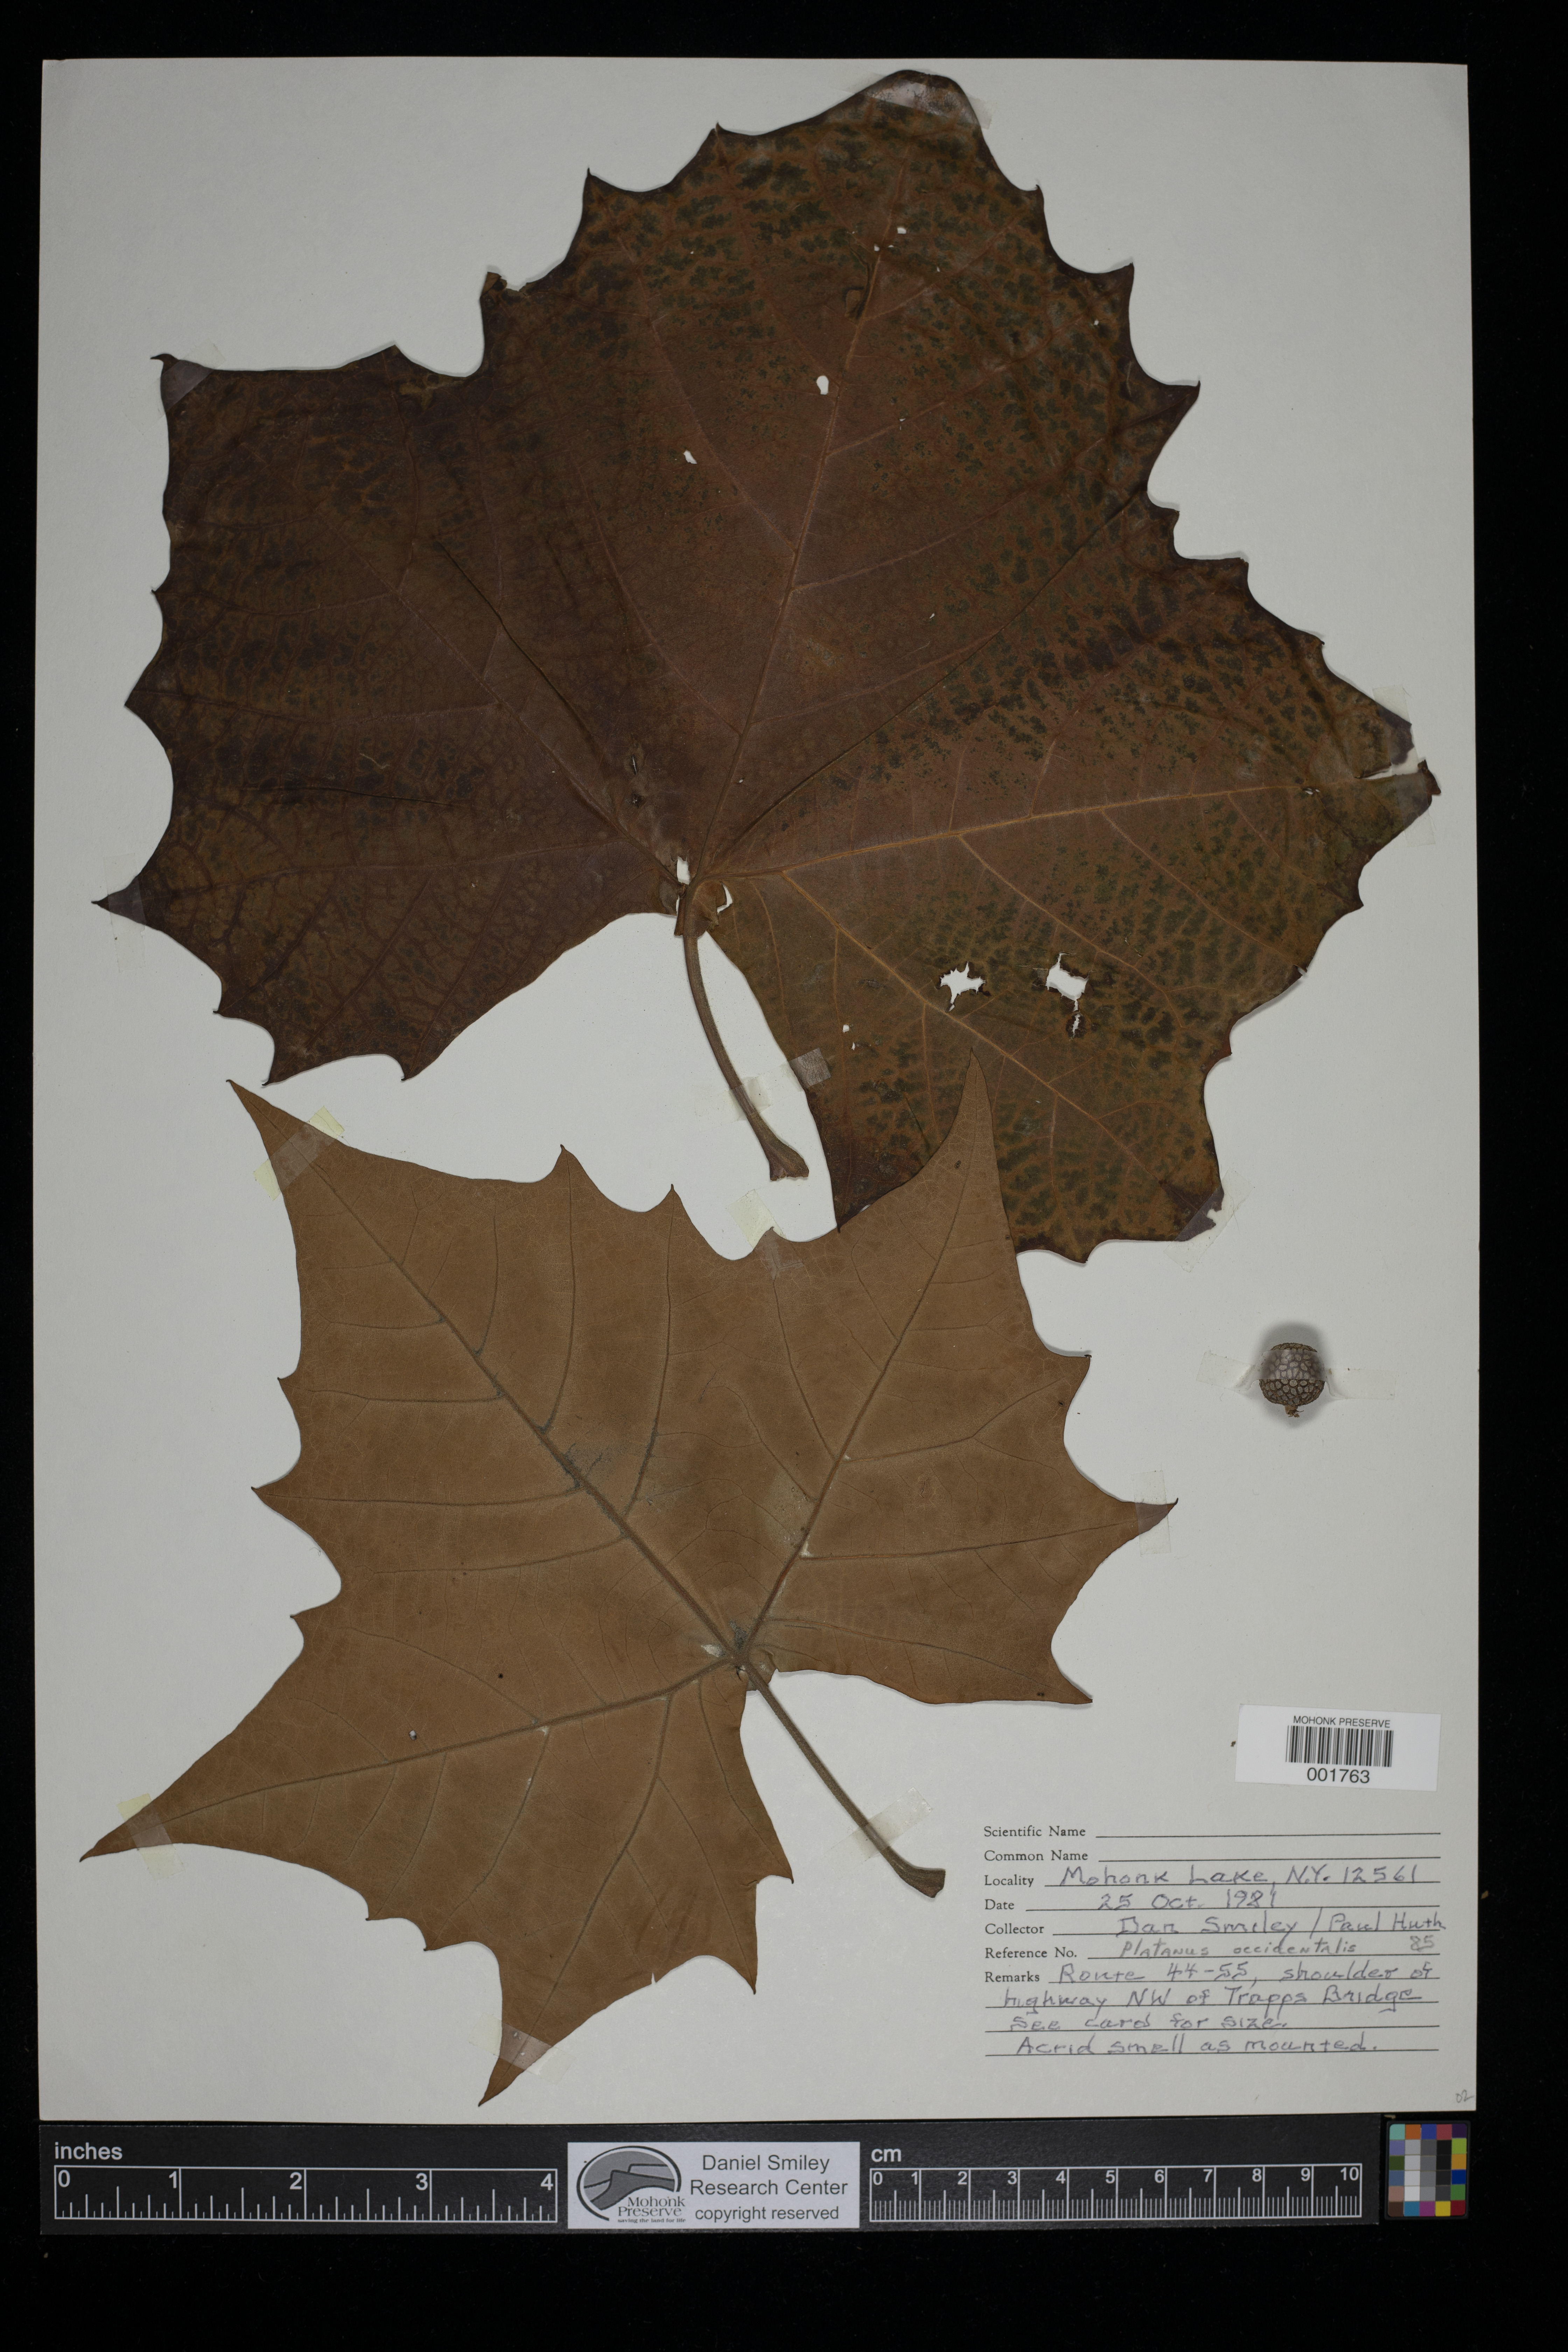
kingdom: Plantae
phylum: Tracheophyta
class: Magnoliopsida
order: Proteales
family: Platanaceae
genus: Platanus
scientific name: Platanus occidentalis
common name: American sycamore
